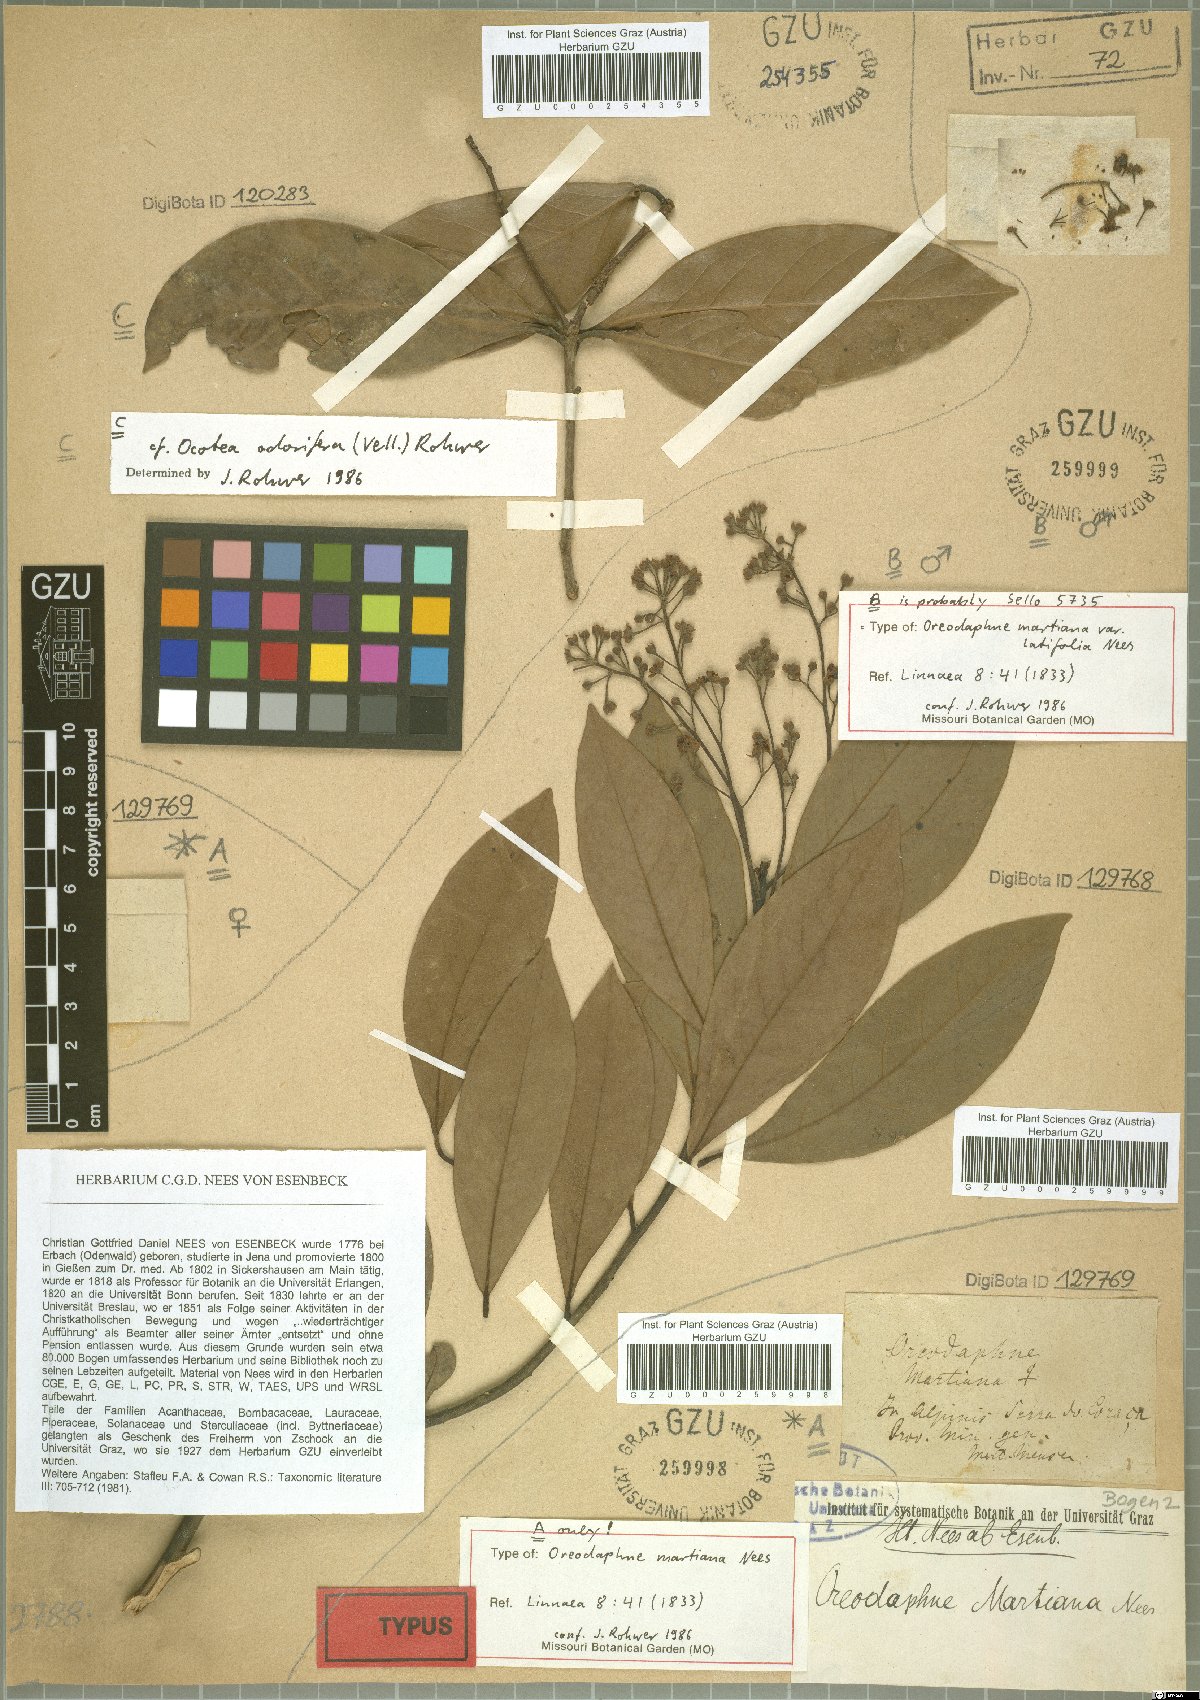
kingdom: Plantae
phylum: Tracheophyta
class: Magnoliopsida
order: Laurales
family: Lauraceae
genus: Ocotea
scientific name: Ocotea lancifolia
